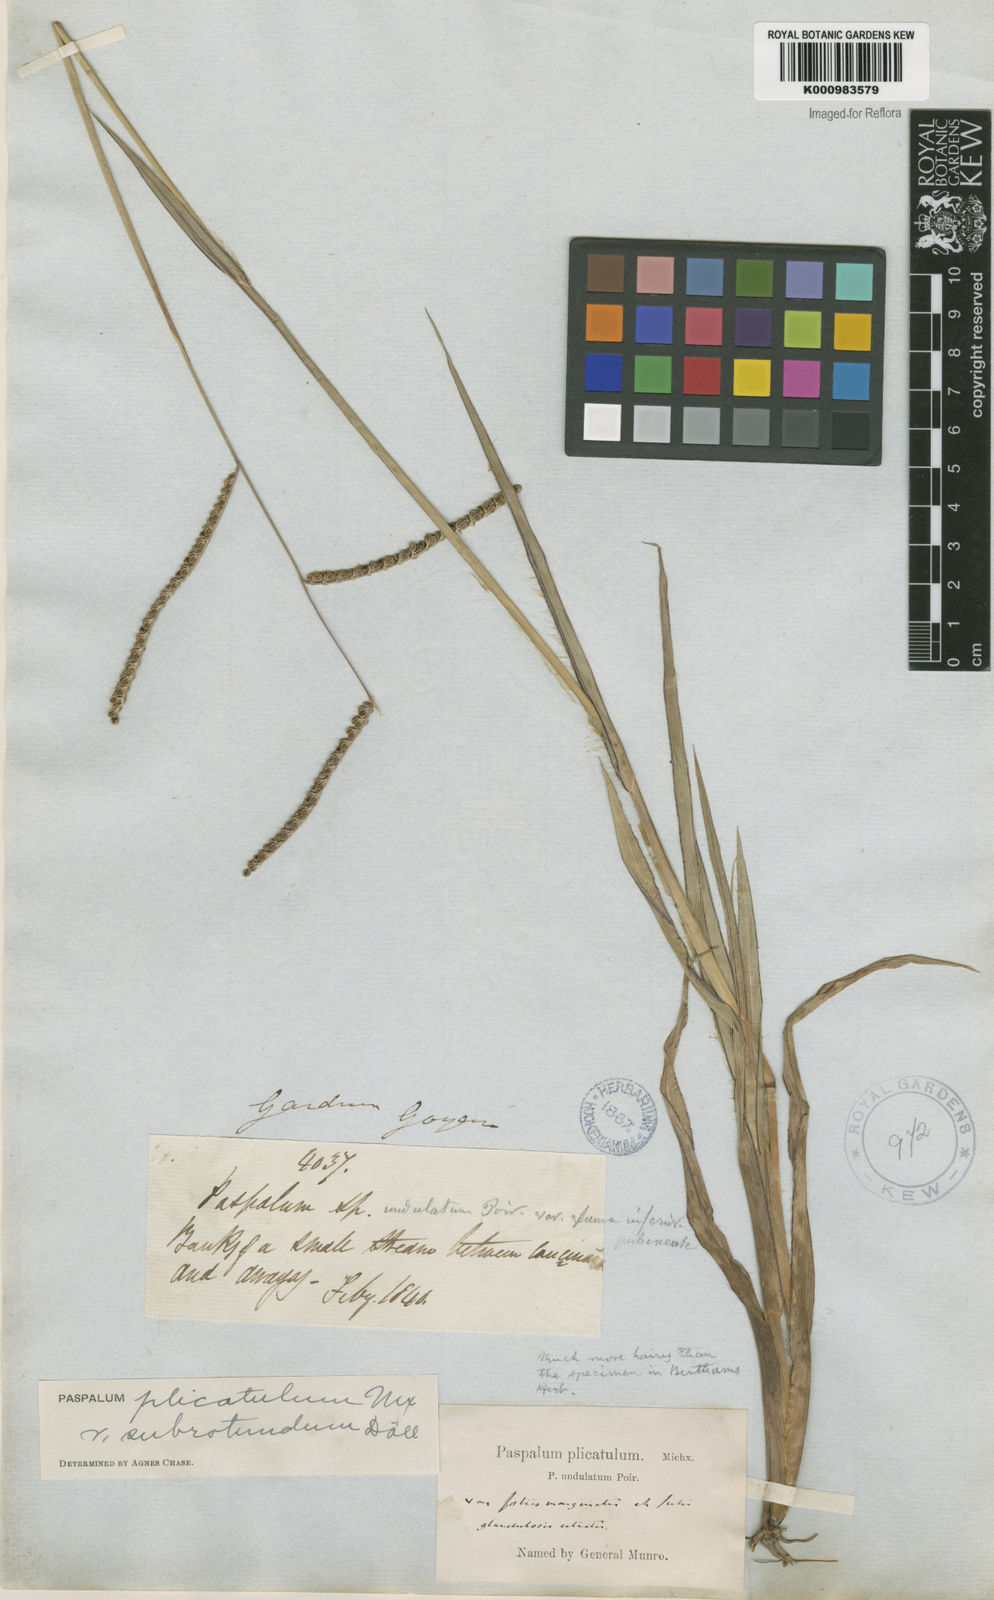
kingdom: Plantae
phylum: Tracheophyta
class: Liliopsida
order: Poales
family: Poaceae
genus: Paspalum
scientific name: Paspalum
